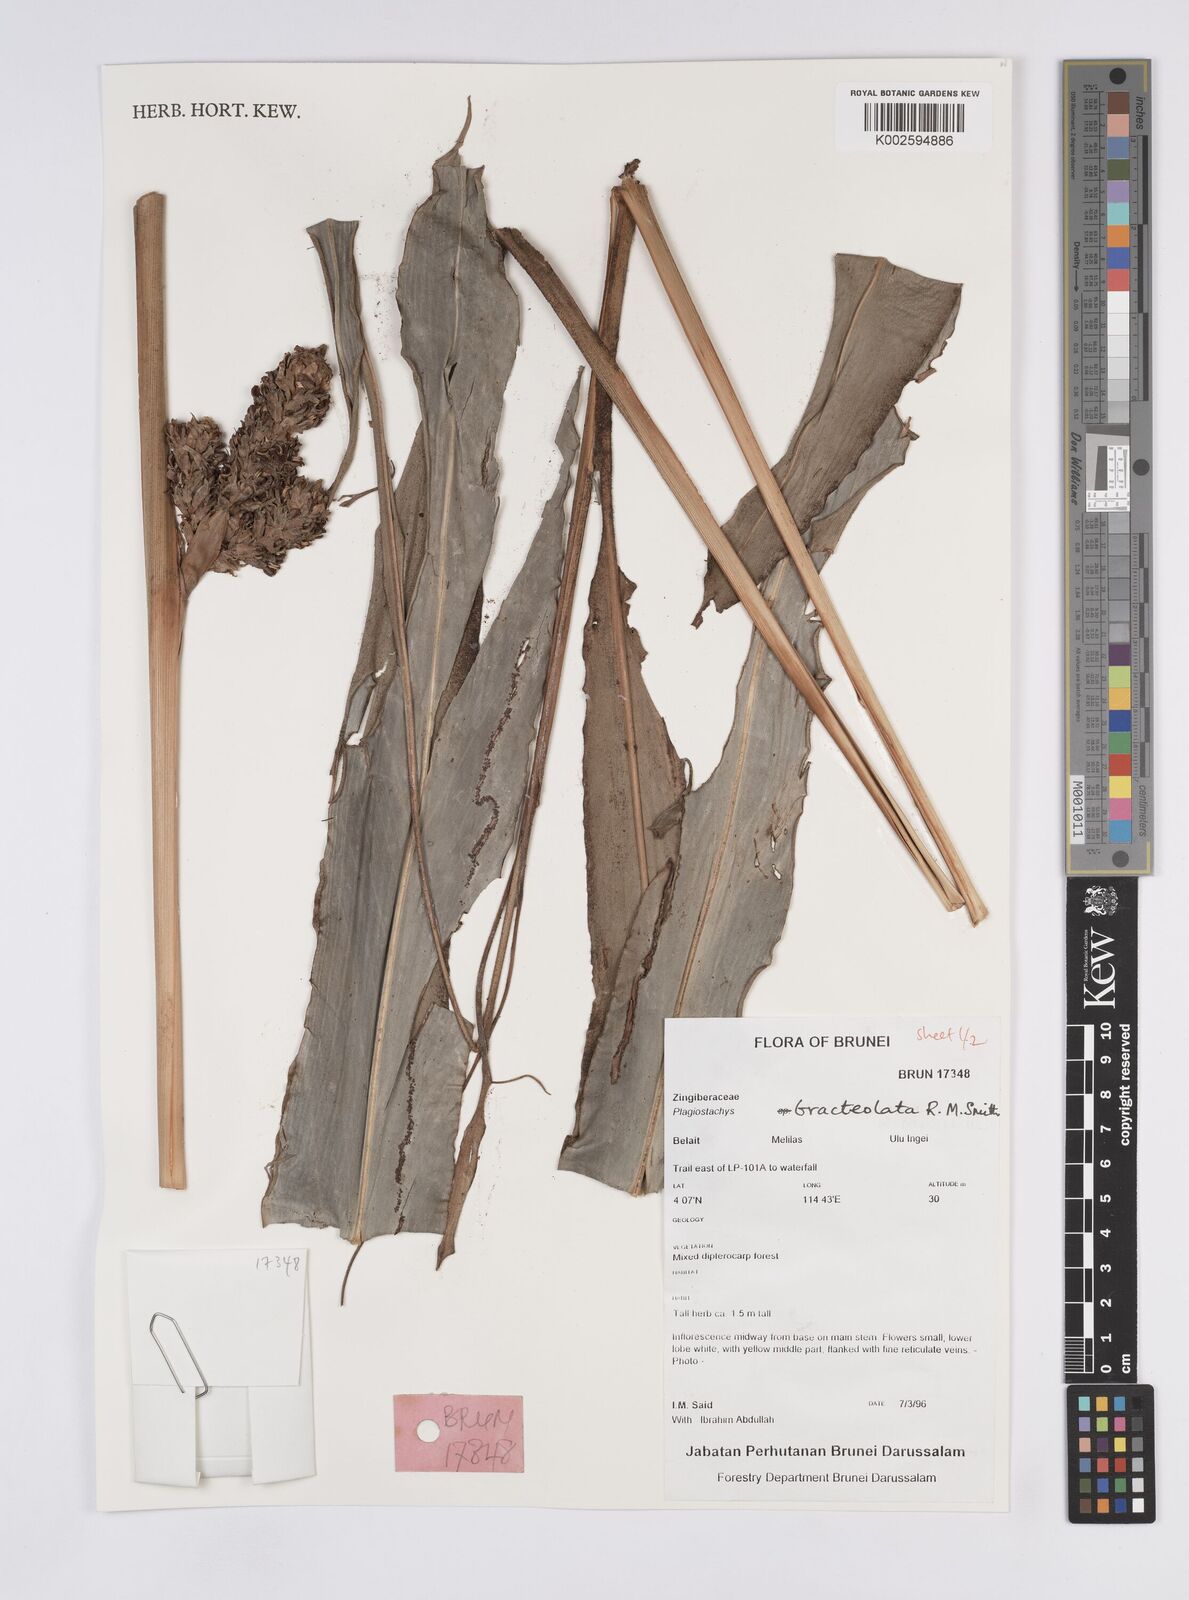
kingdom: Plantae
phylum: Tracheophyta
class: Liliopsida
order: Zingiberales
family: Zingiberaceae
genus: Plagiostachys
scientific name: Plagiostachys bracteolata
